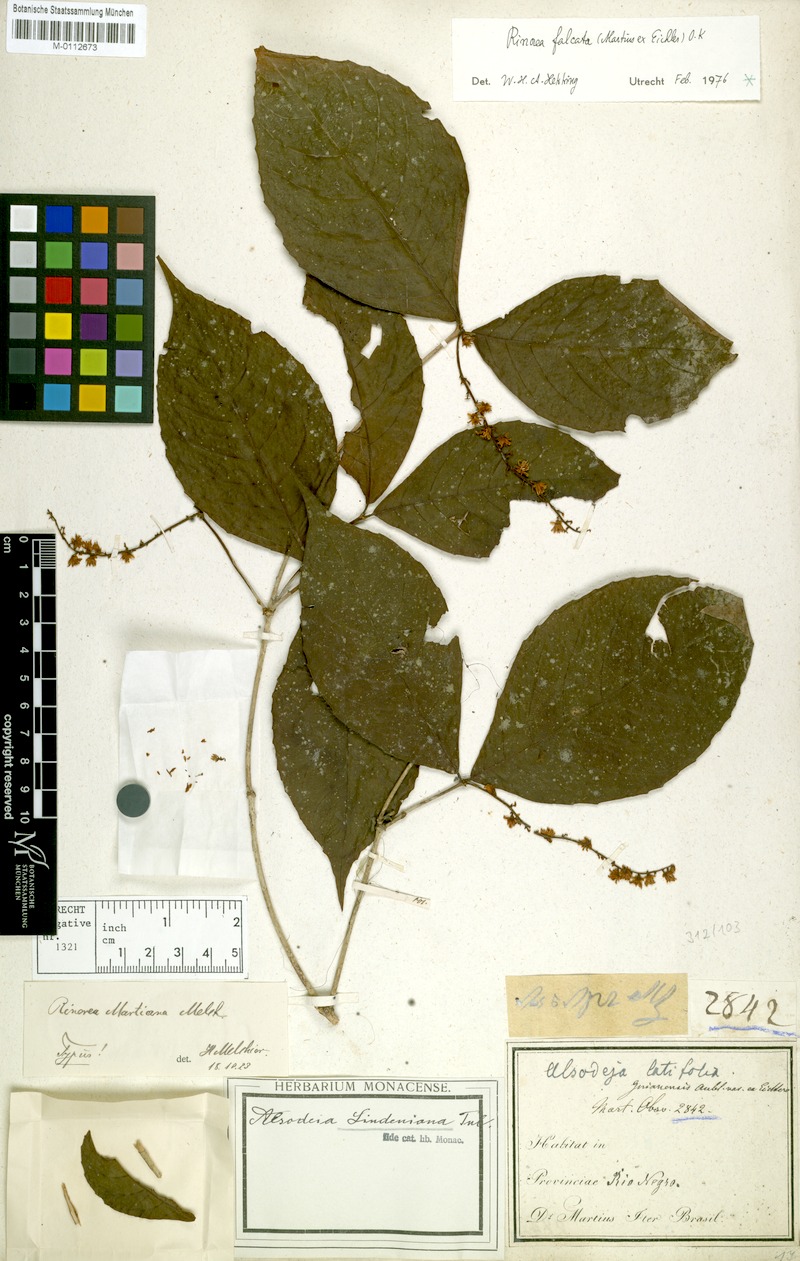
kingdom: Plantae
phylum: Tracheophyta
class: Magnoliopsida
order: Malpighiales
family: Violaceae
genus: Rinorea
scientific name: Rinorea falcata
